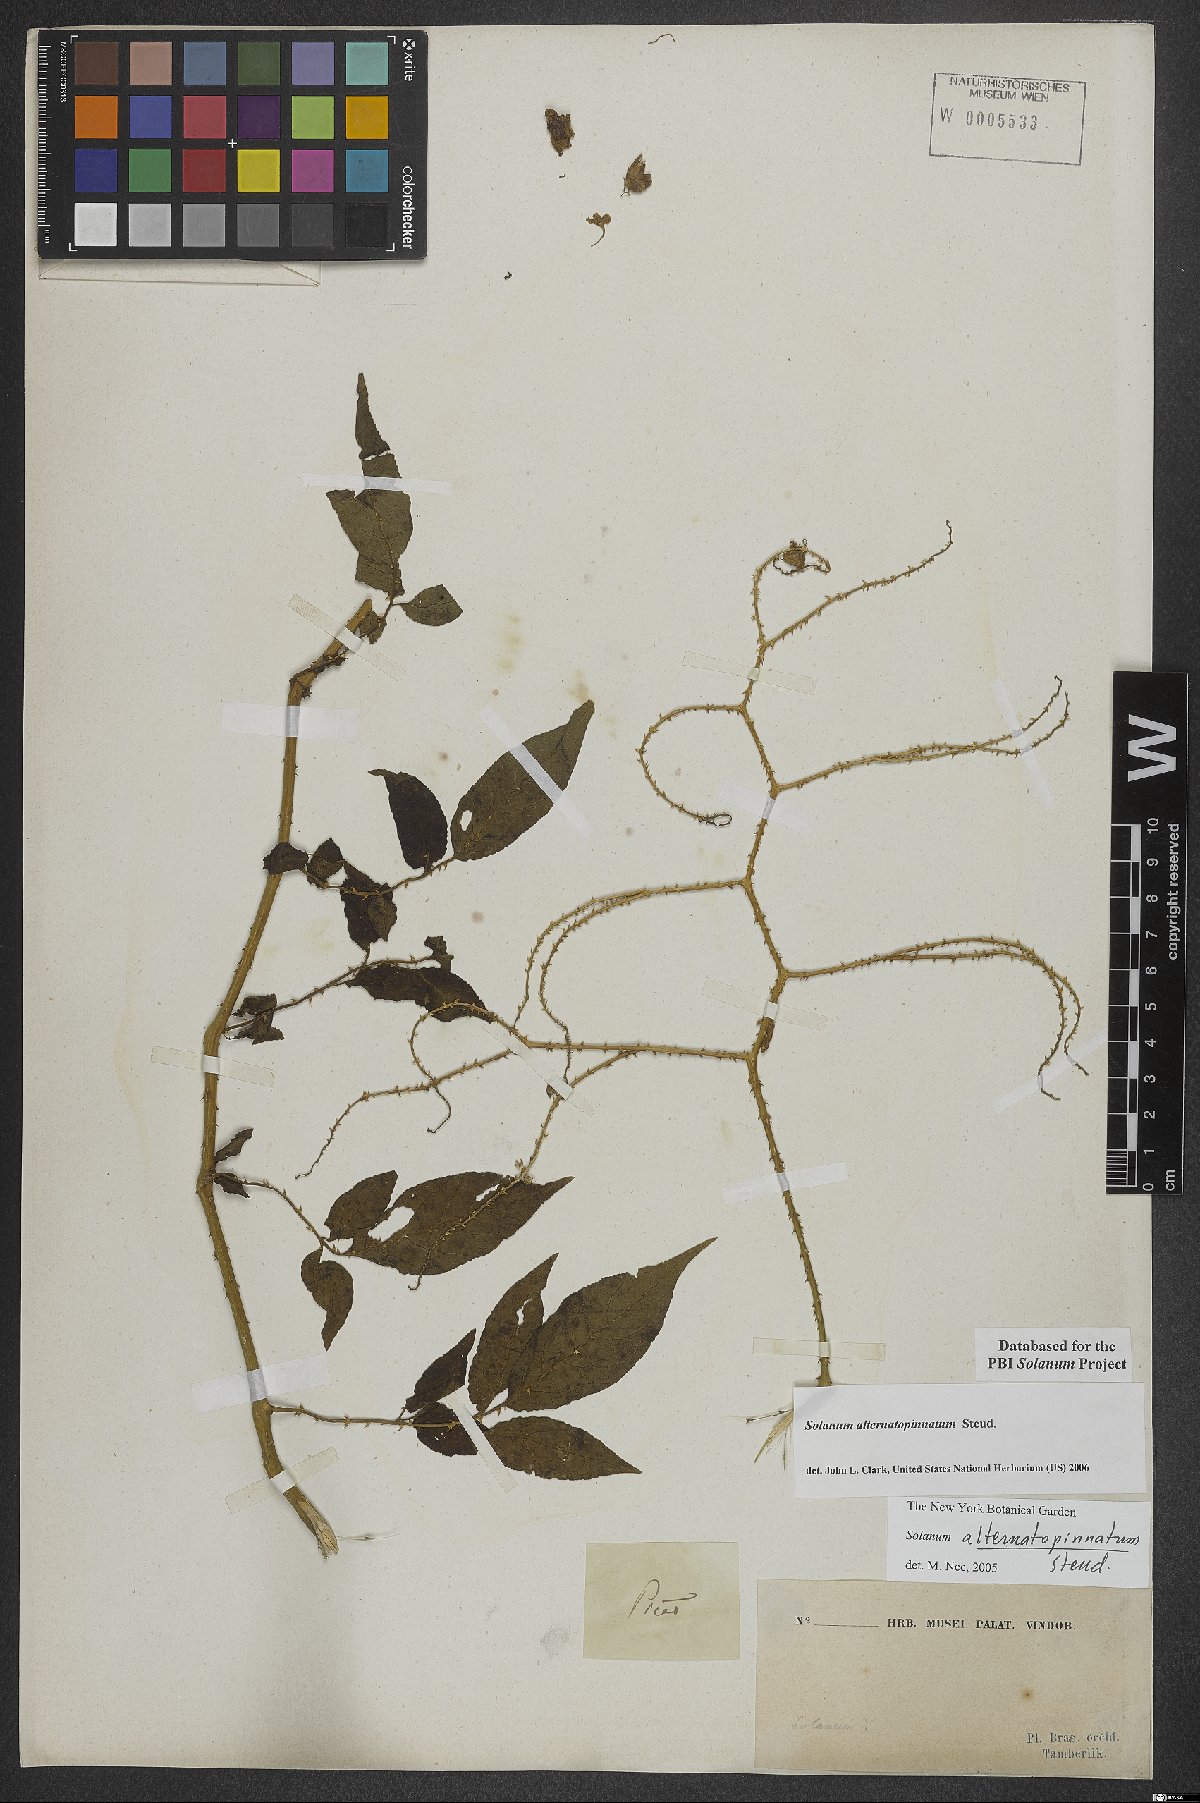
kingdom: Plantae
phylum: Tracheophyta
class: Magnoliopsida
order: Solanales
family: Solanaceae
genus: Solanum
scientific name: Solanum alternatopinnatum
